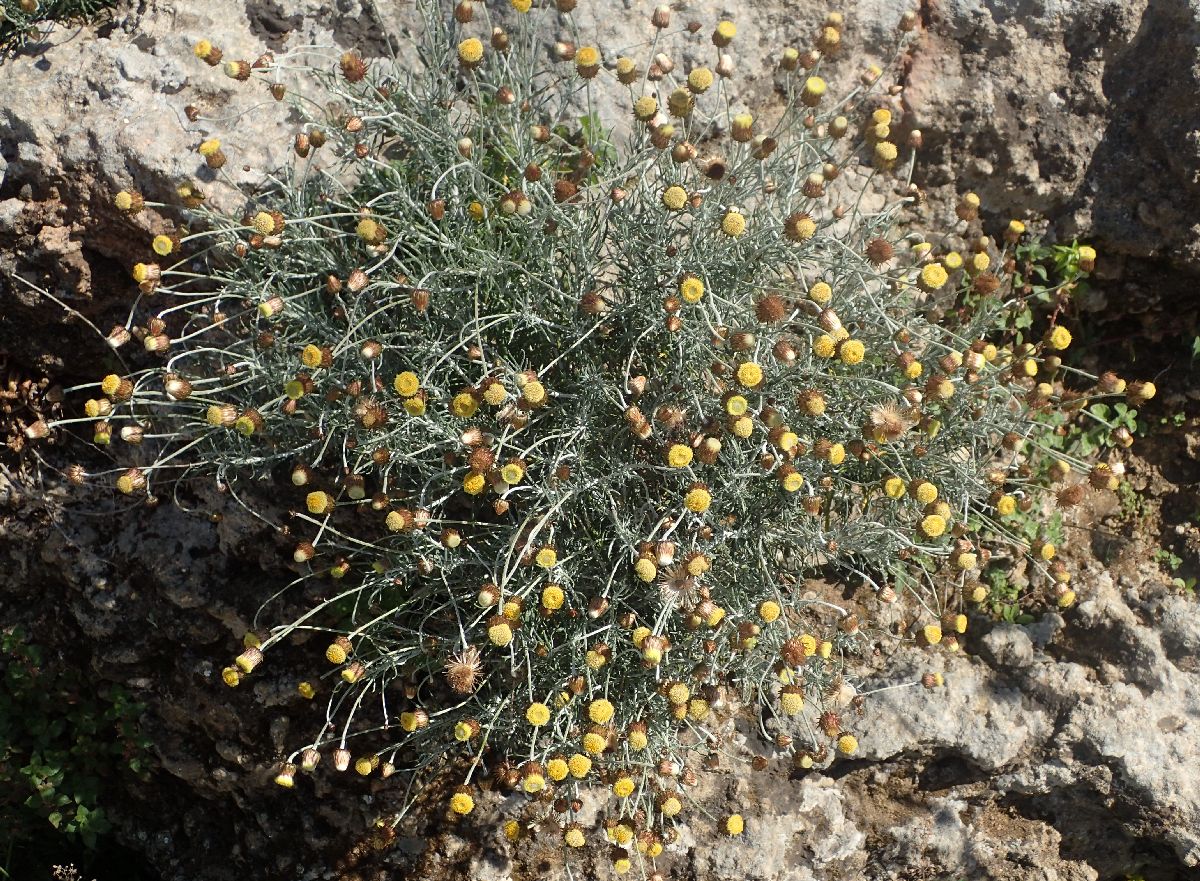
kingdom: Plantae
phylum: Tracheophyta
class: Magnoliopsida
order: Asterales
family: Asteraceae
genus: Phagnalon
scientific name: Phagnalon graecum
